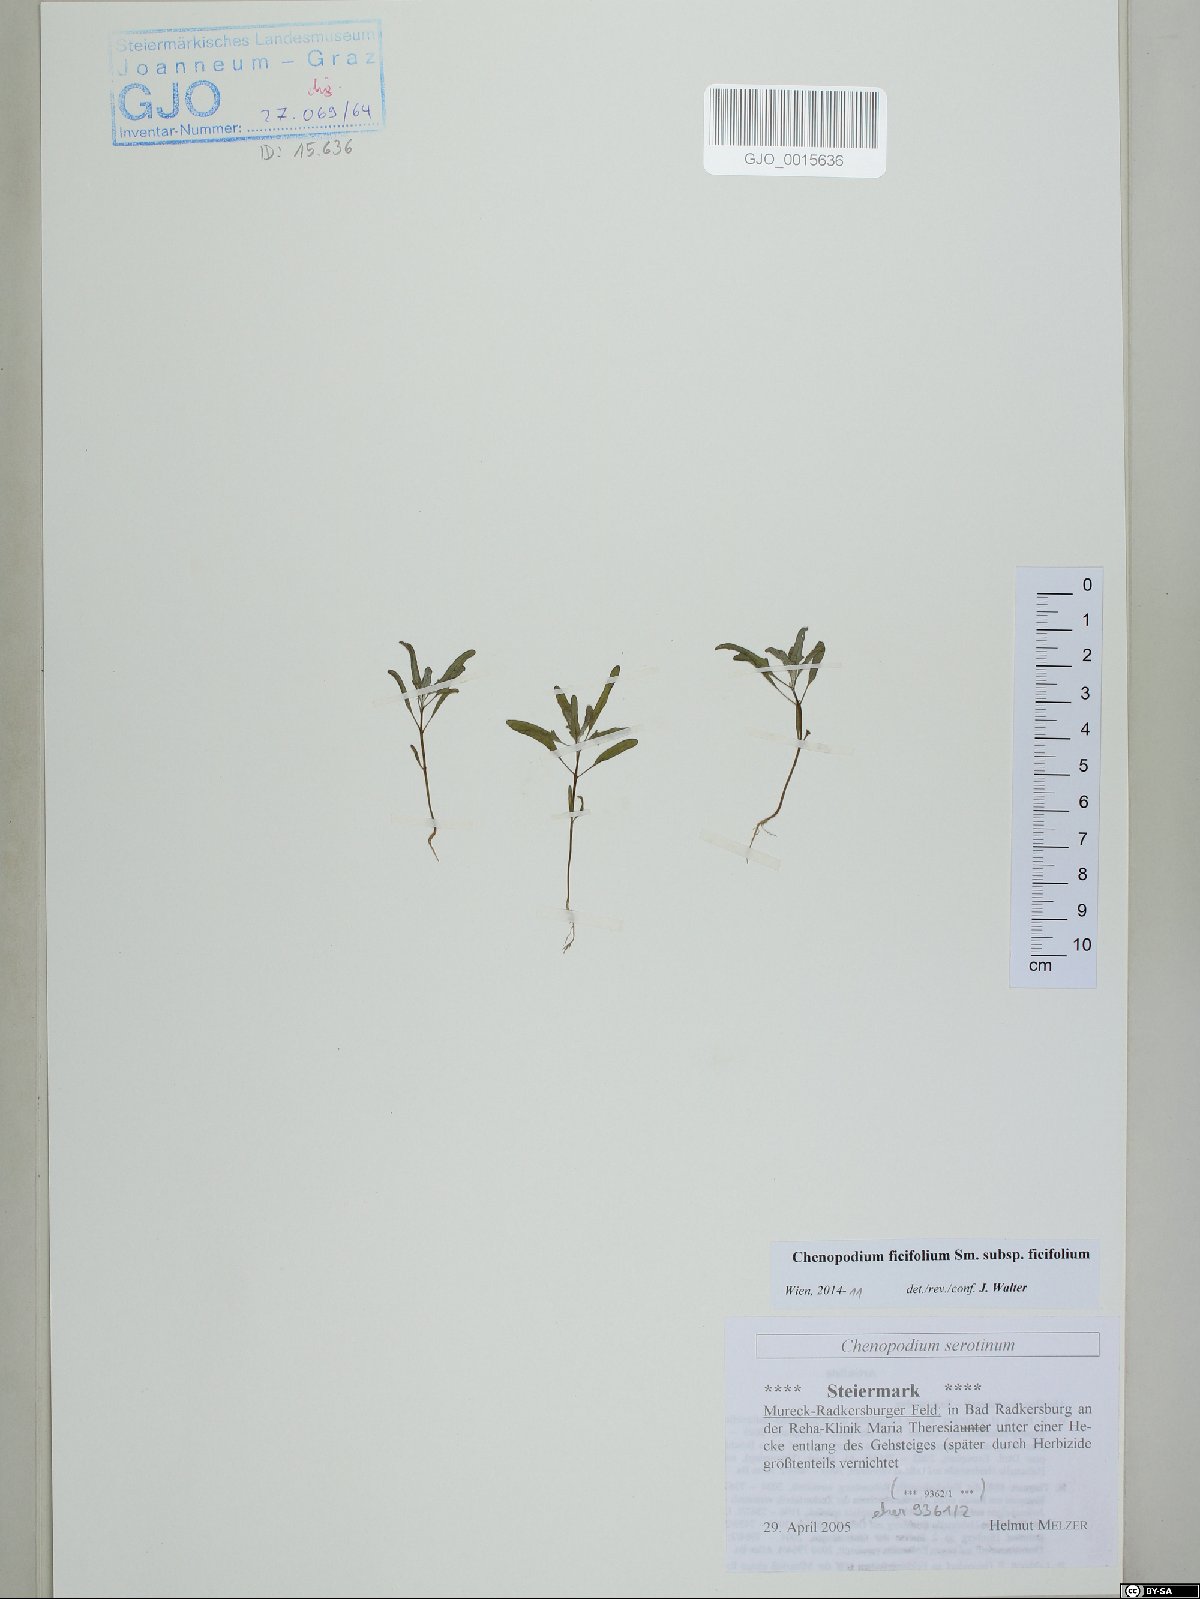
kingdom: Plantae
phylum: Tracheophyta
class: Magnoliopsida
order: Caryophyllales
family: Amaranthaceae
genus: Chenopodium
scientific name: Chenopodium ficifolium
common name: Fig-leaved goosefoot
